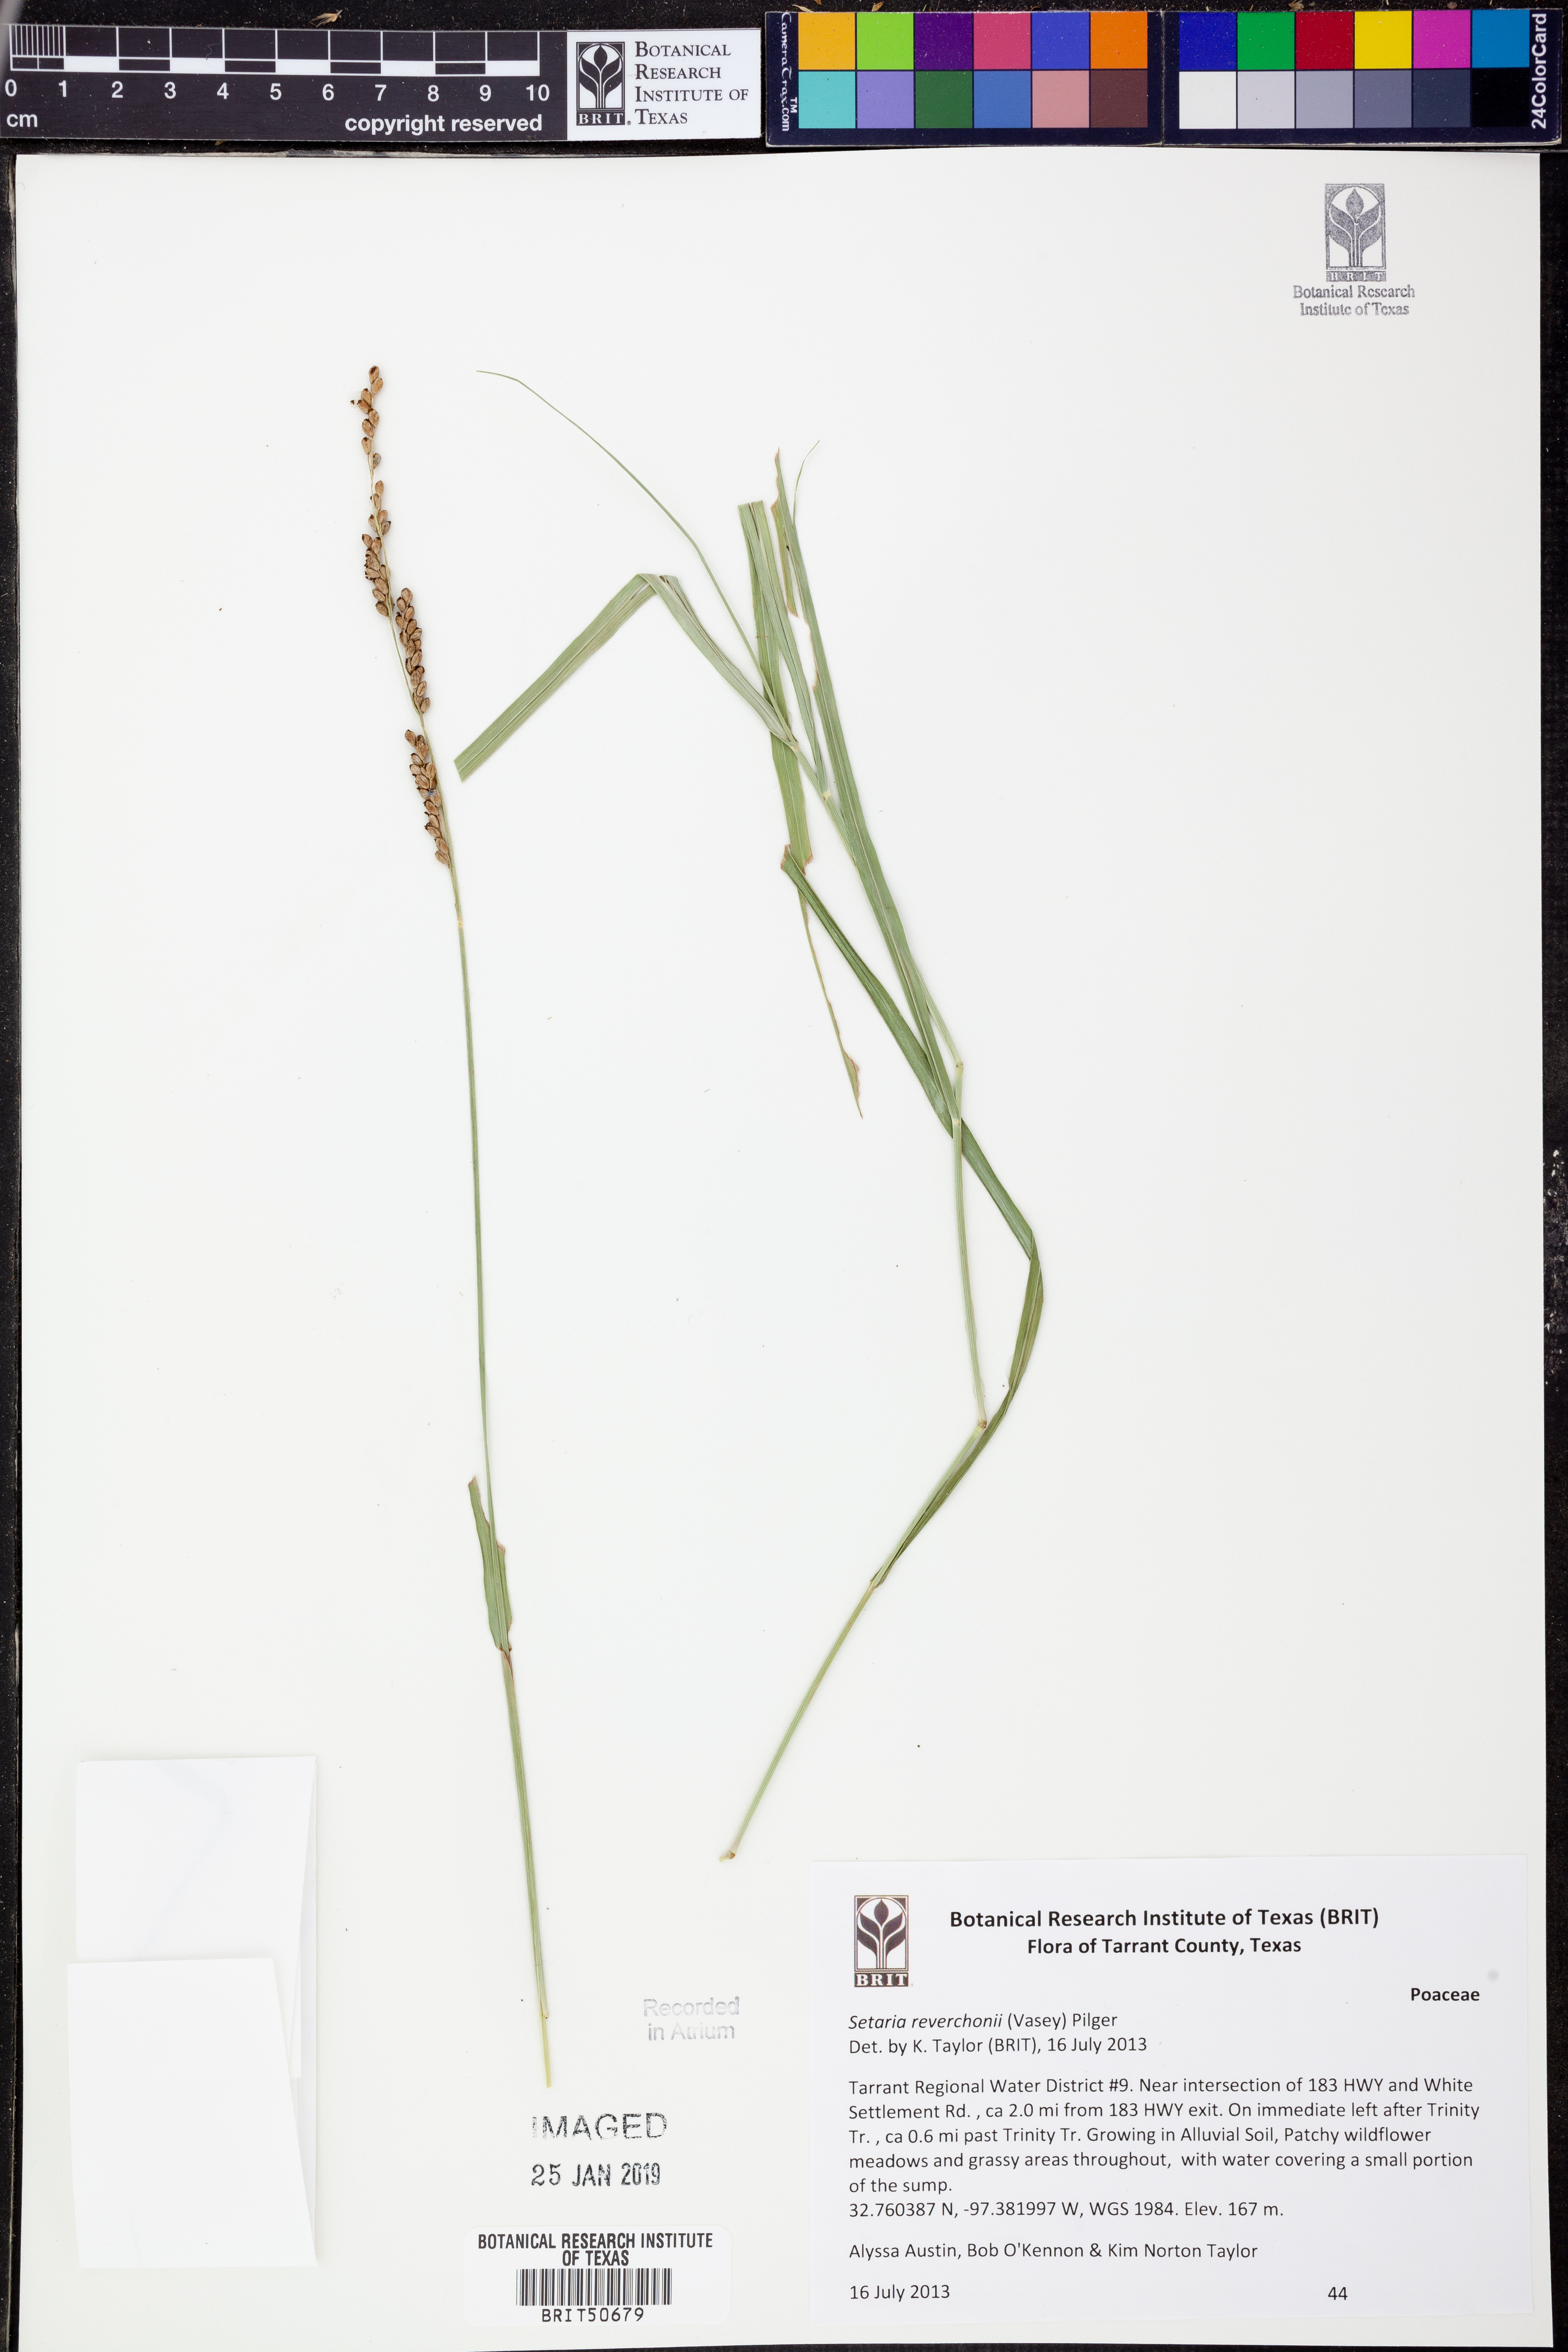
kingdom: Plantae
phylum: Tracheophyta
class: Liliopsida
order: Poales
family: Poaceae
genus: Setaria
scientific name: Setaria reverchonii
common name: Reverchon's bristle grass
